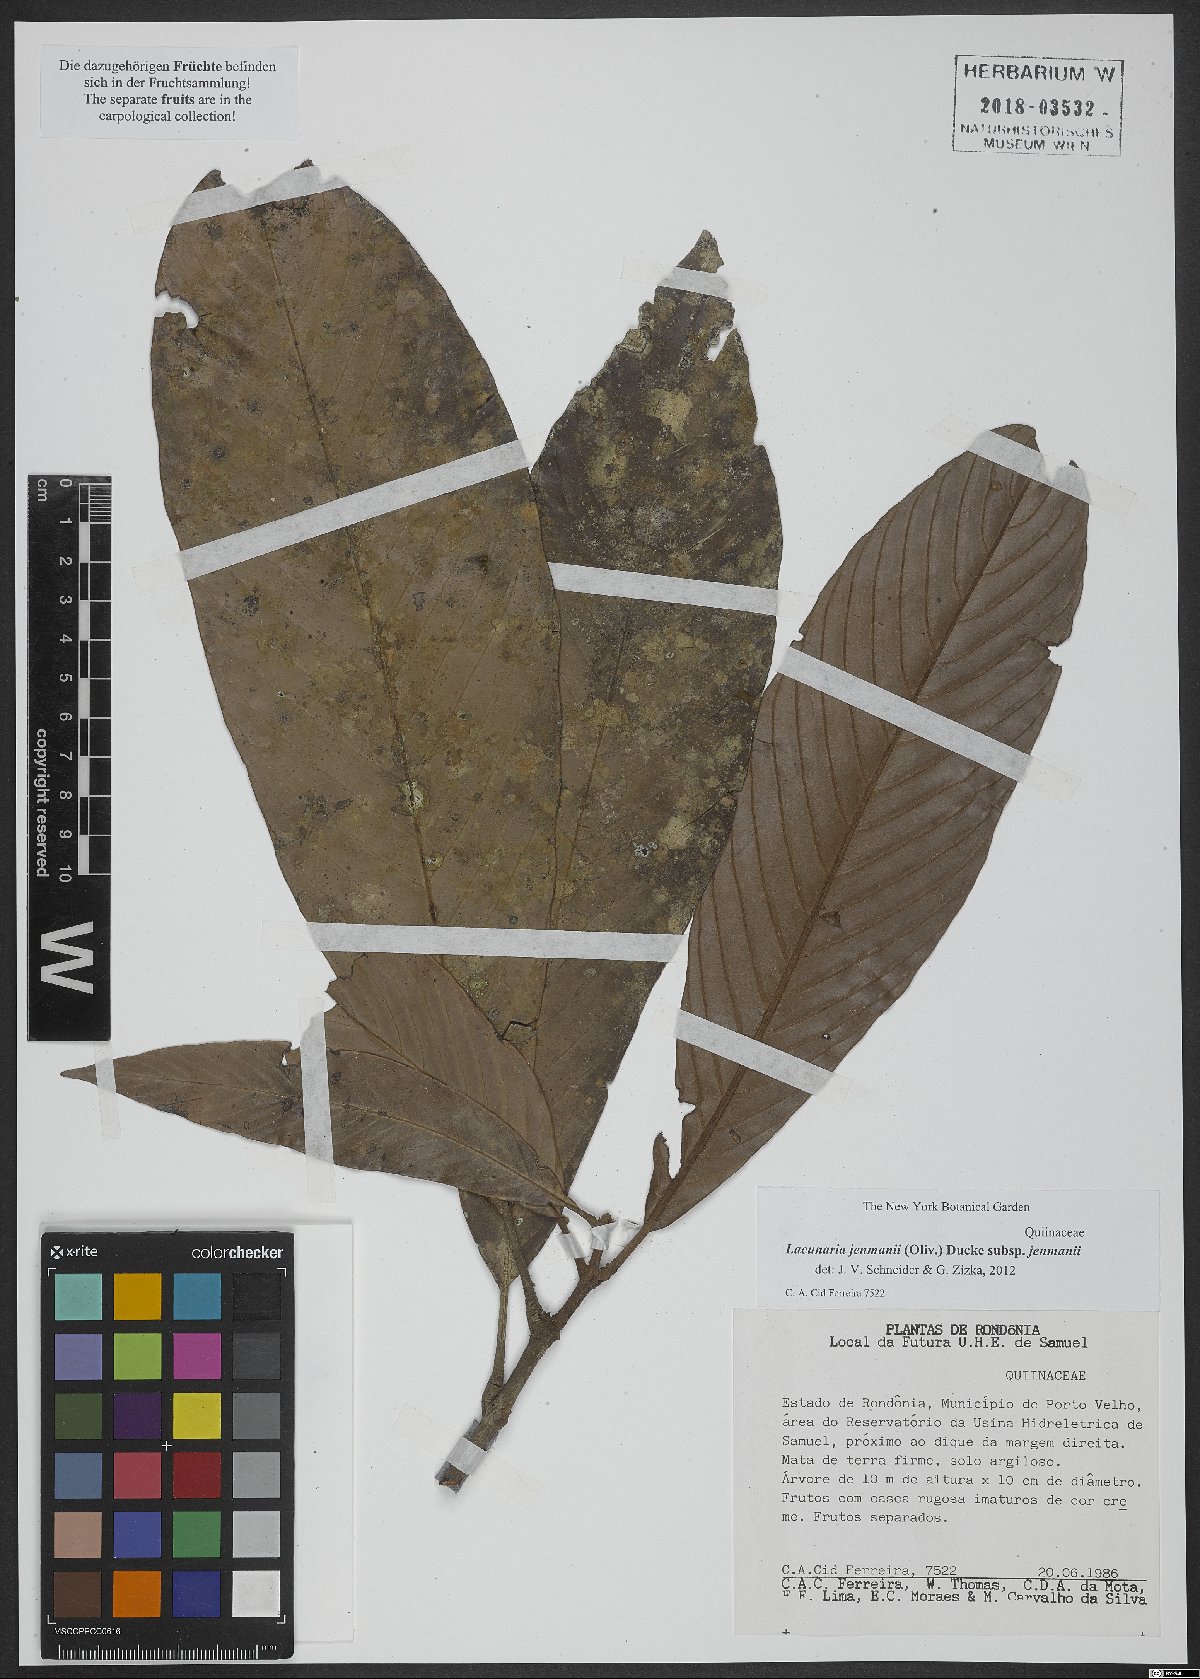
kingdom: Plantae
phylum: Tracheophyta
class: Magnoliopsida
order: Malpighiales
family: Quiinaceae
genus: Lacunaria
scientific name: Lacunaria jenmanii
